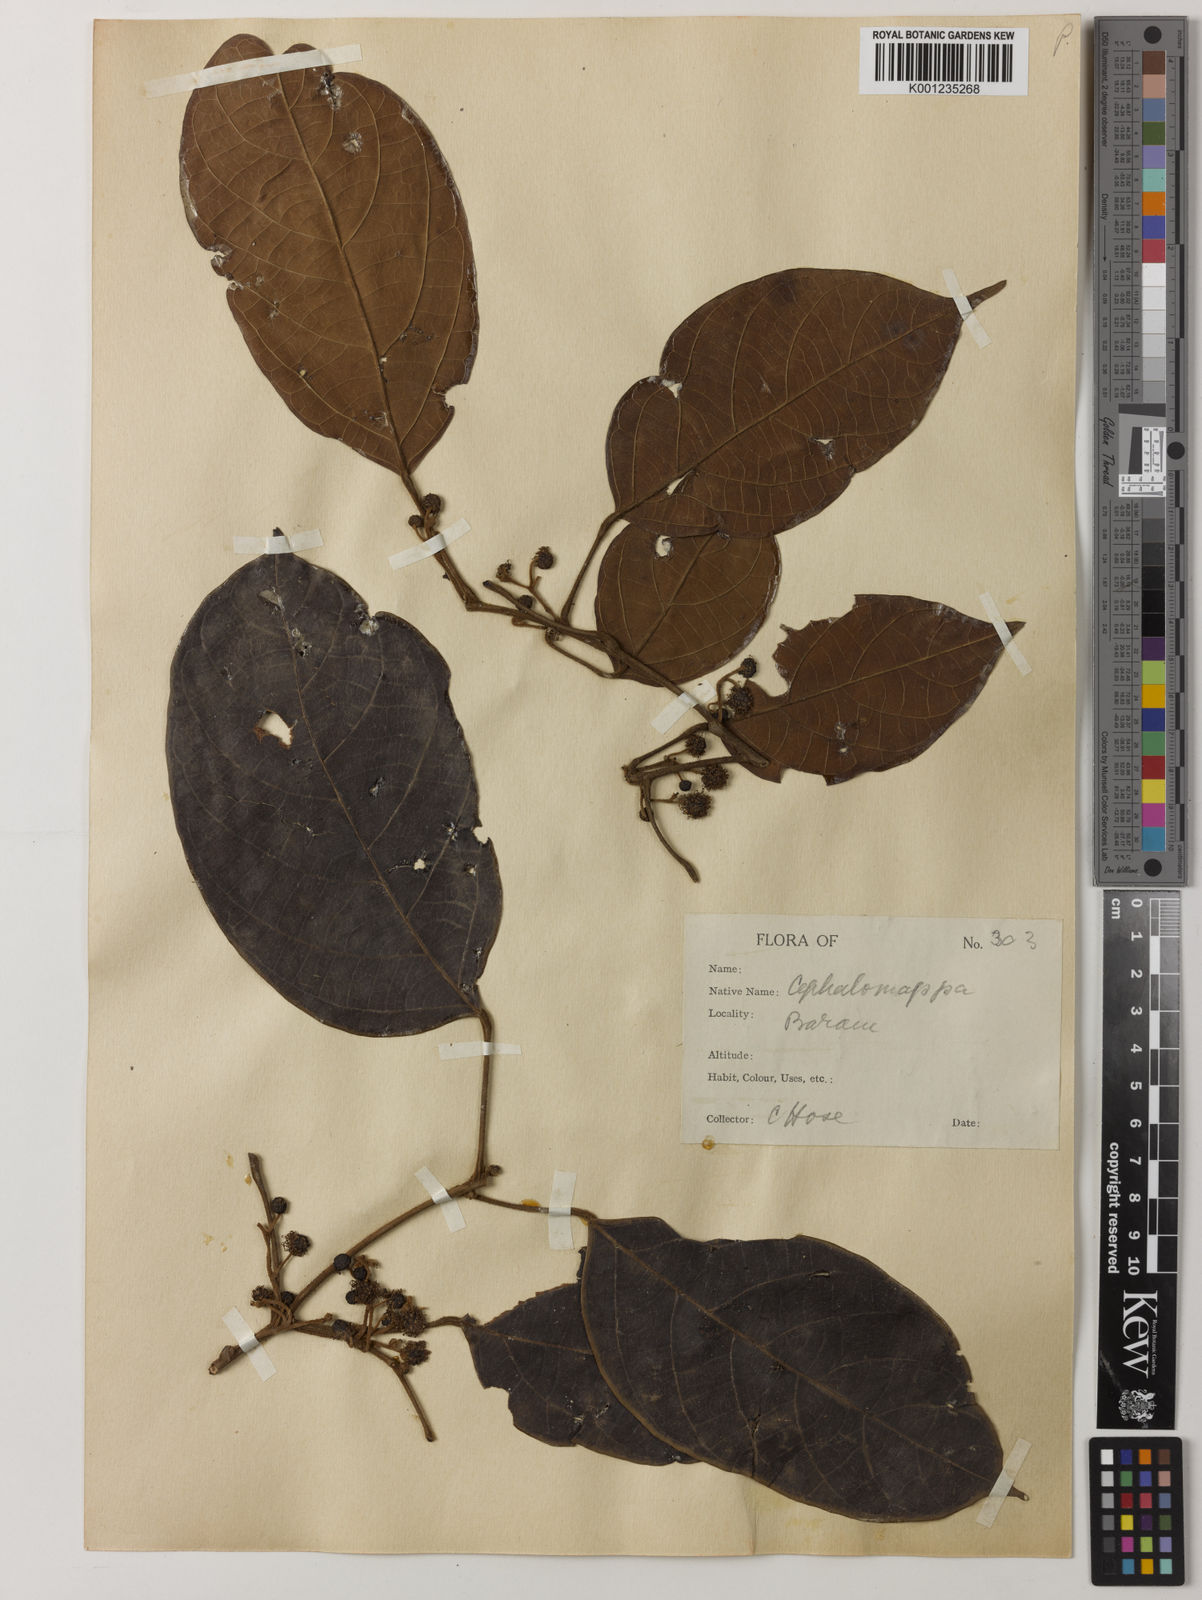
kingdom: Plantae
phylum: Tracheophyta
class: Magnoliopsida
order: Malpighiales
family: Euphorbiaceae
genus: Cephalomappa
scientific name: Cephalomappa beccariana
